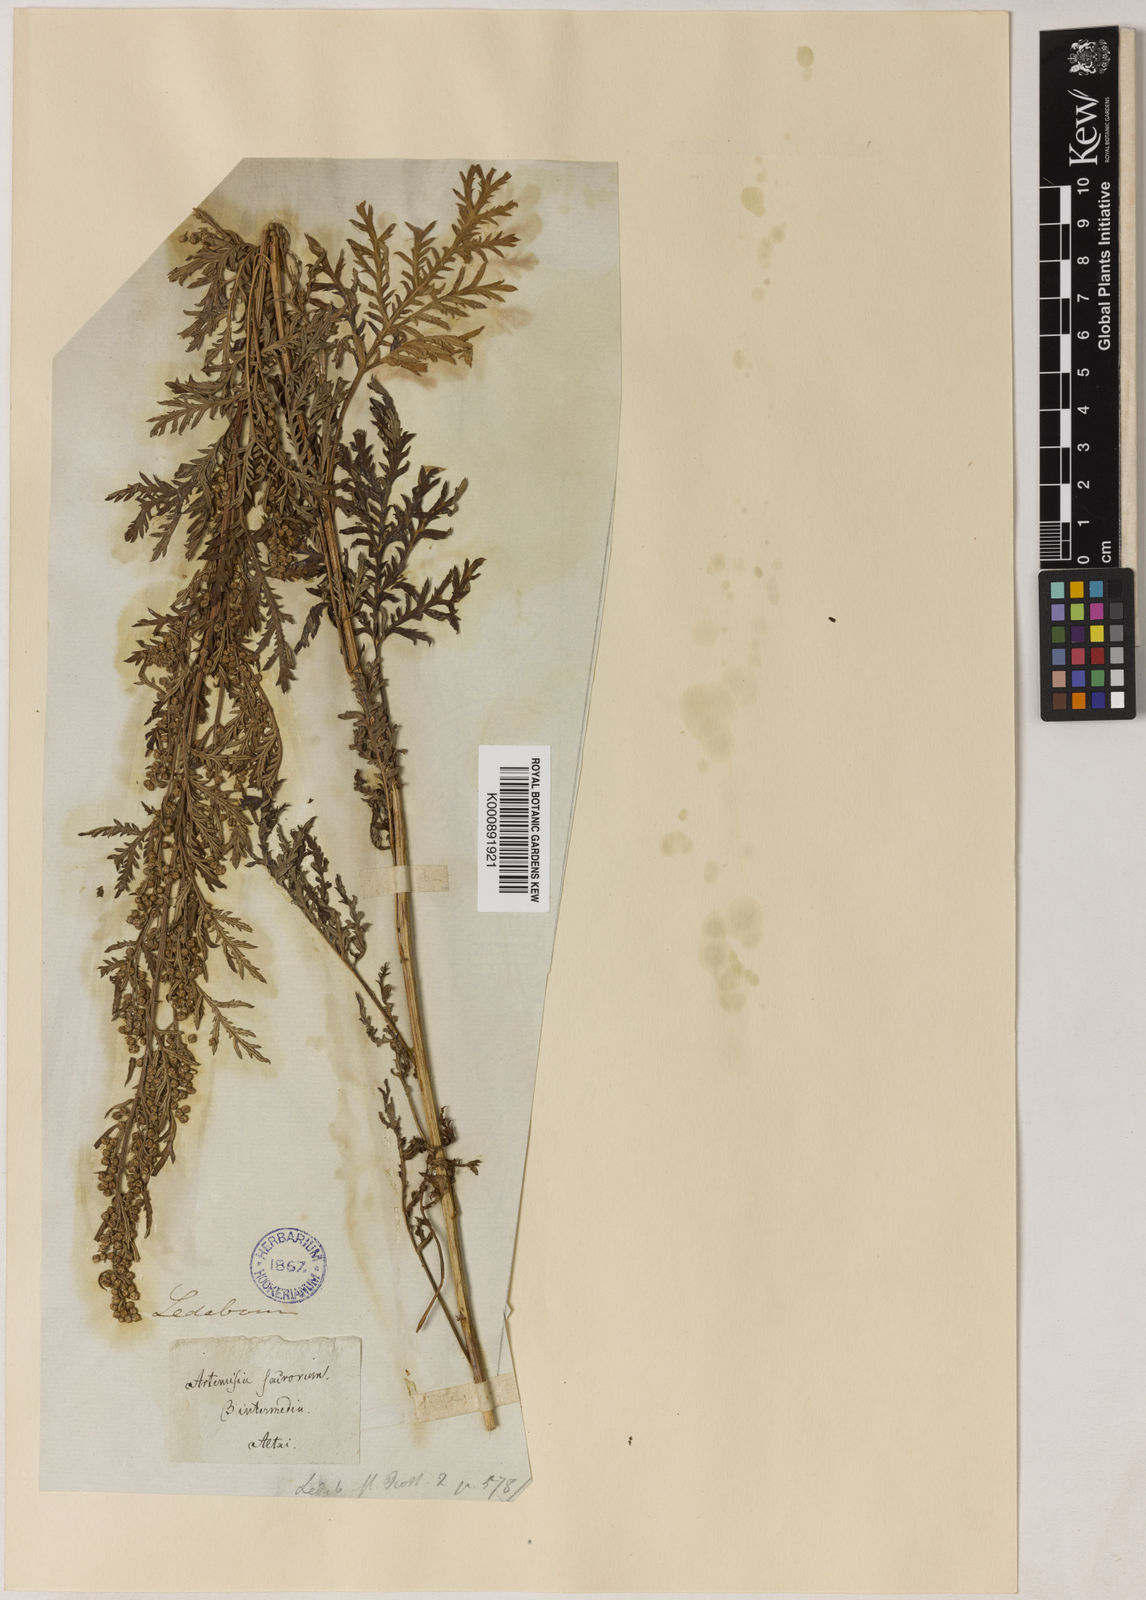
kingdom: Plantae
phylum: Tracheophyta
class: Magnoliopsida
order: Asterales
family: Asteraceae
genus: Artemisia
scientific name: Artemisia gmelinii
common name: Gmelin's wormwood
